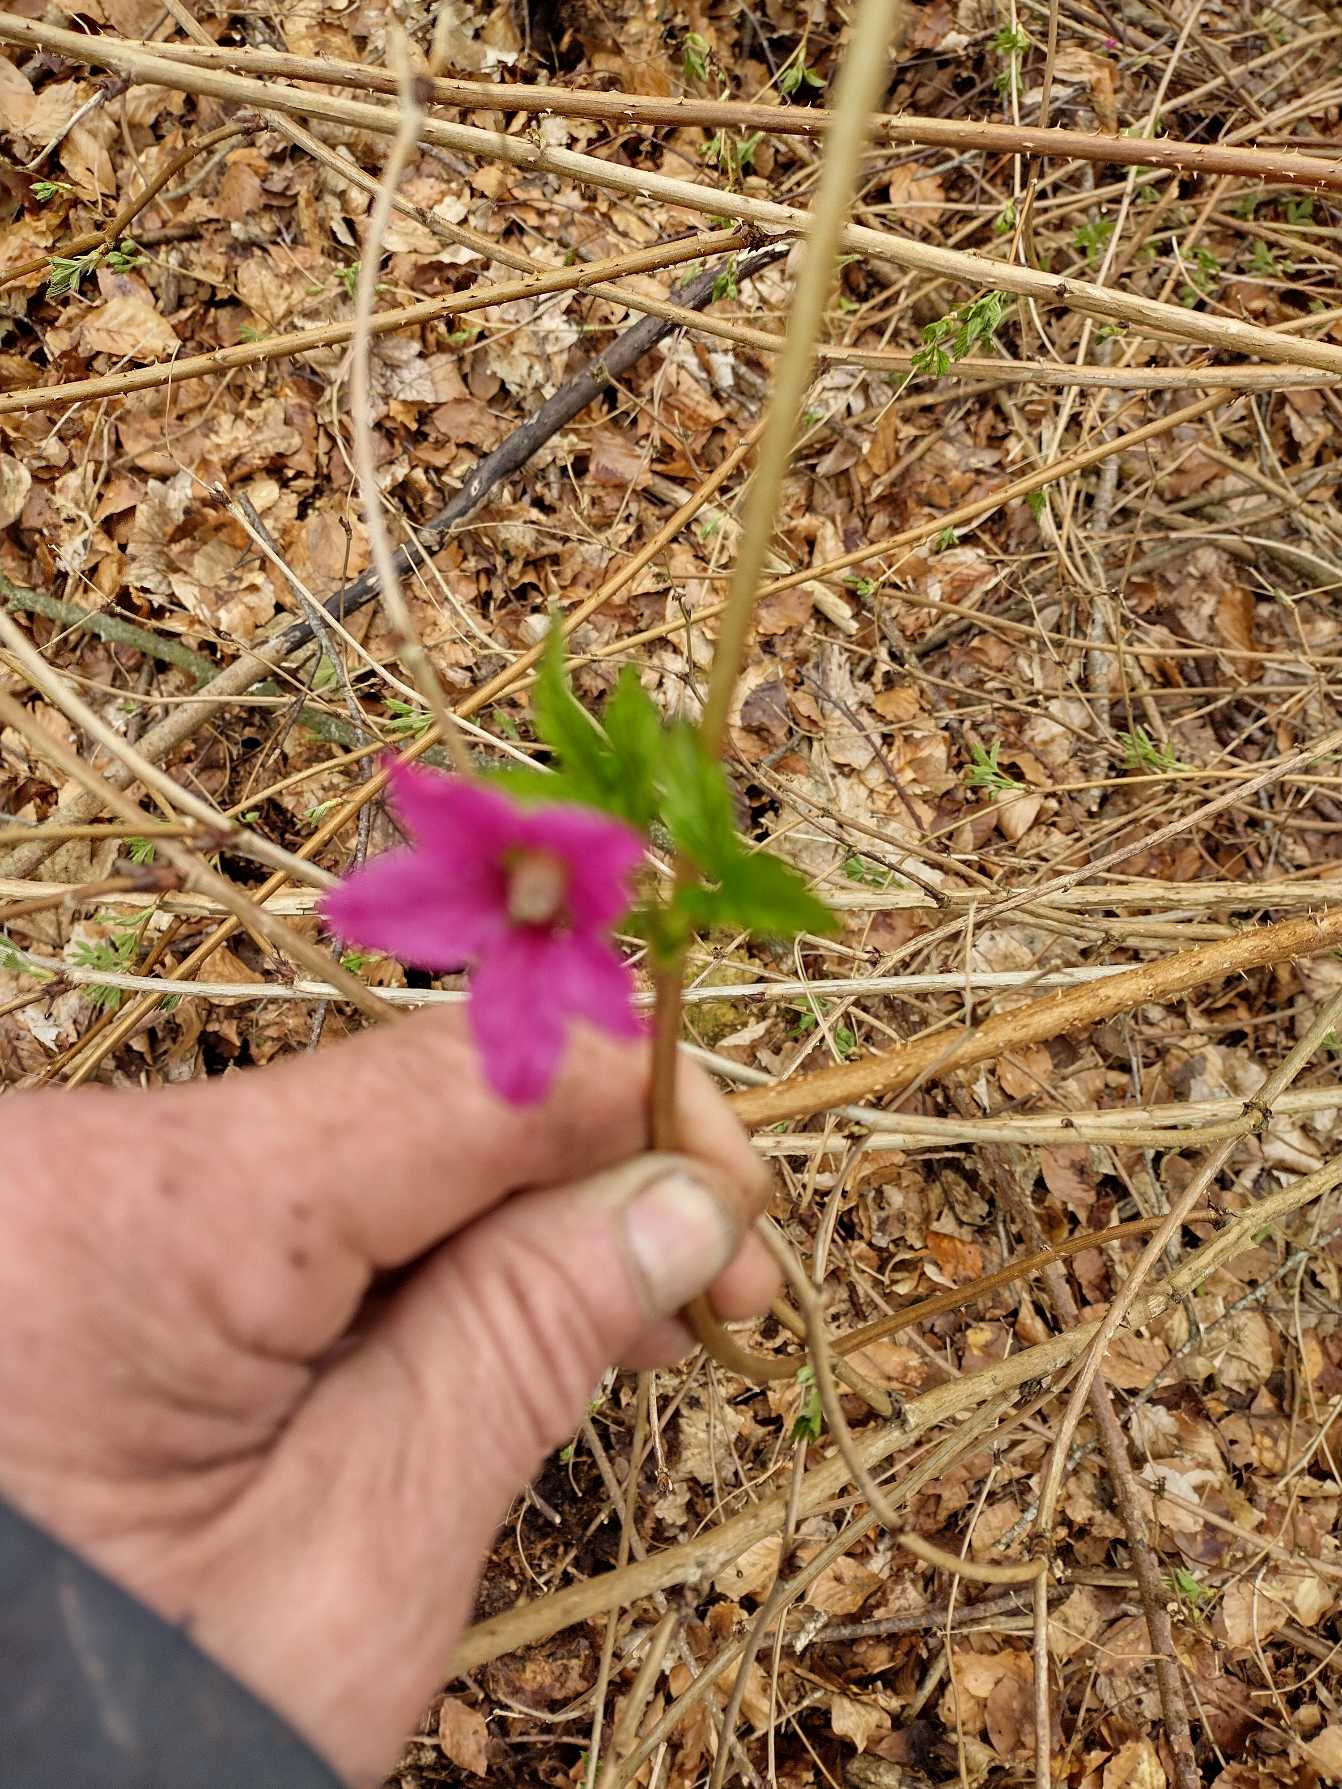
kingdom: Plantae
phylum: Tracheophyta
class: Magnoliopsida
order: Rosales
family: Rosaceae
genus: Rubus
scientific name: Rubus spectabilis
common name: Laksebær
